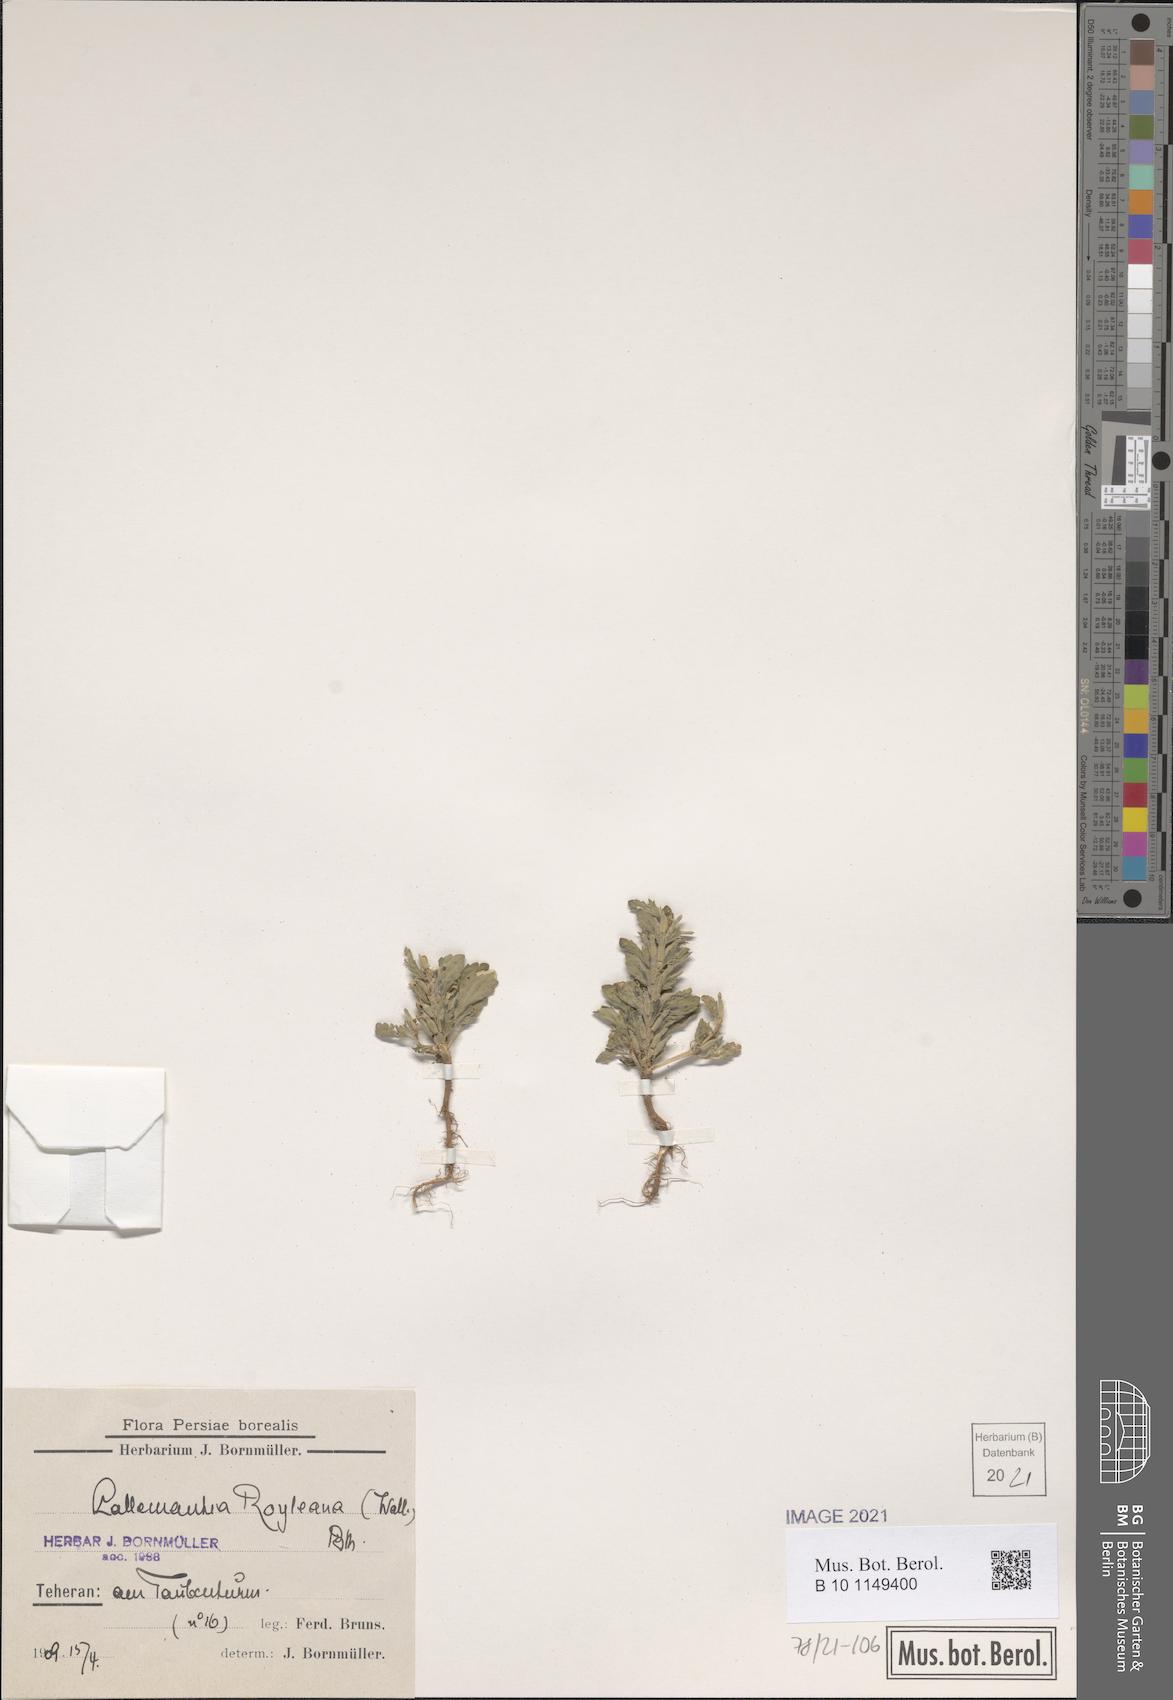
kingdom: Plantae
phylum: Tracheophyta
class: Magnoliopsida
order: Lamiales
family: Lamiaceae
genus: Lallemantia
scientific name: Lallemantia royleana
